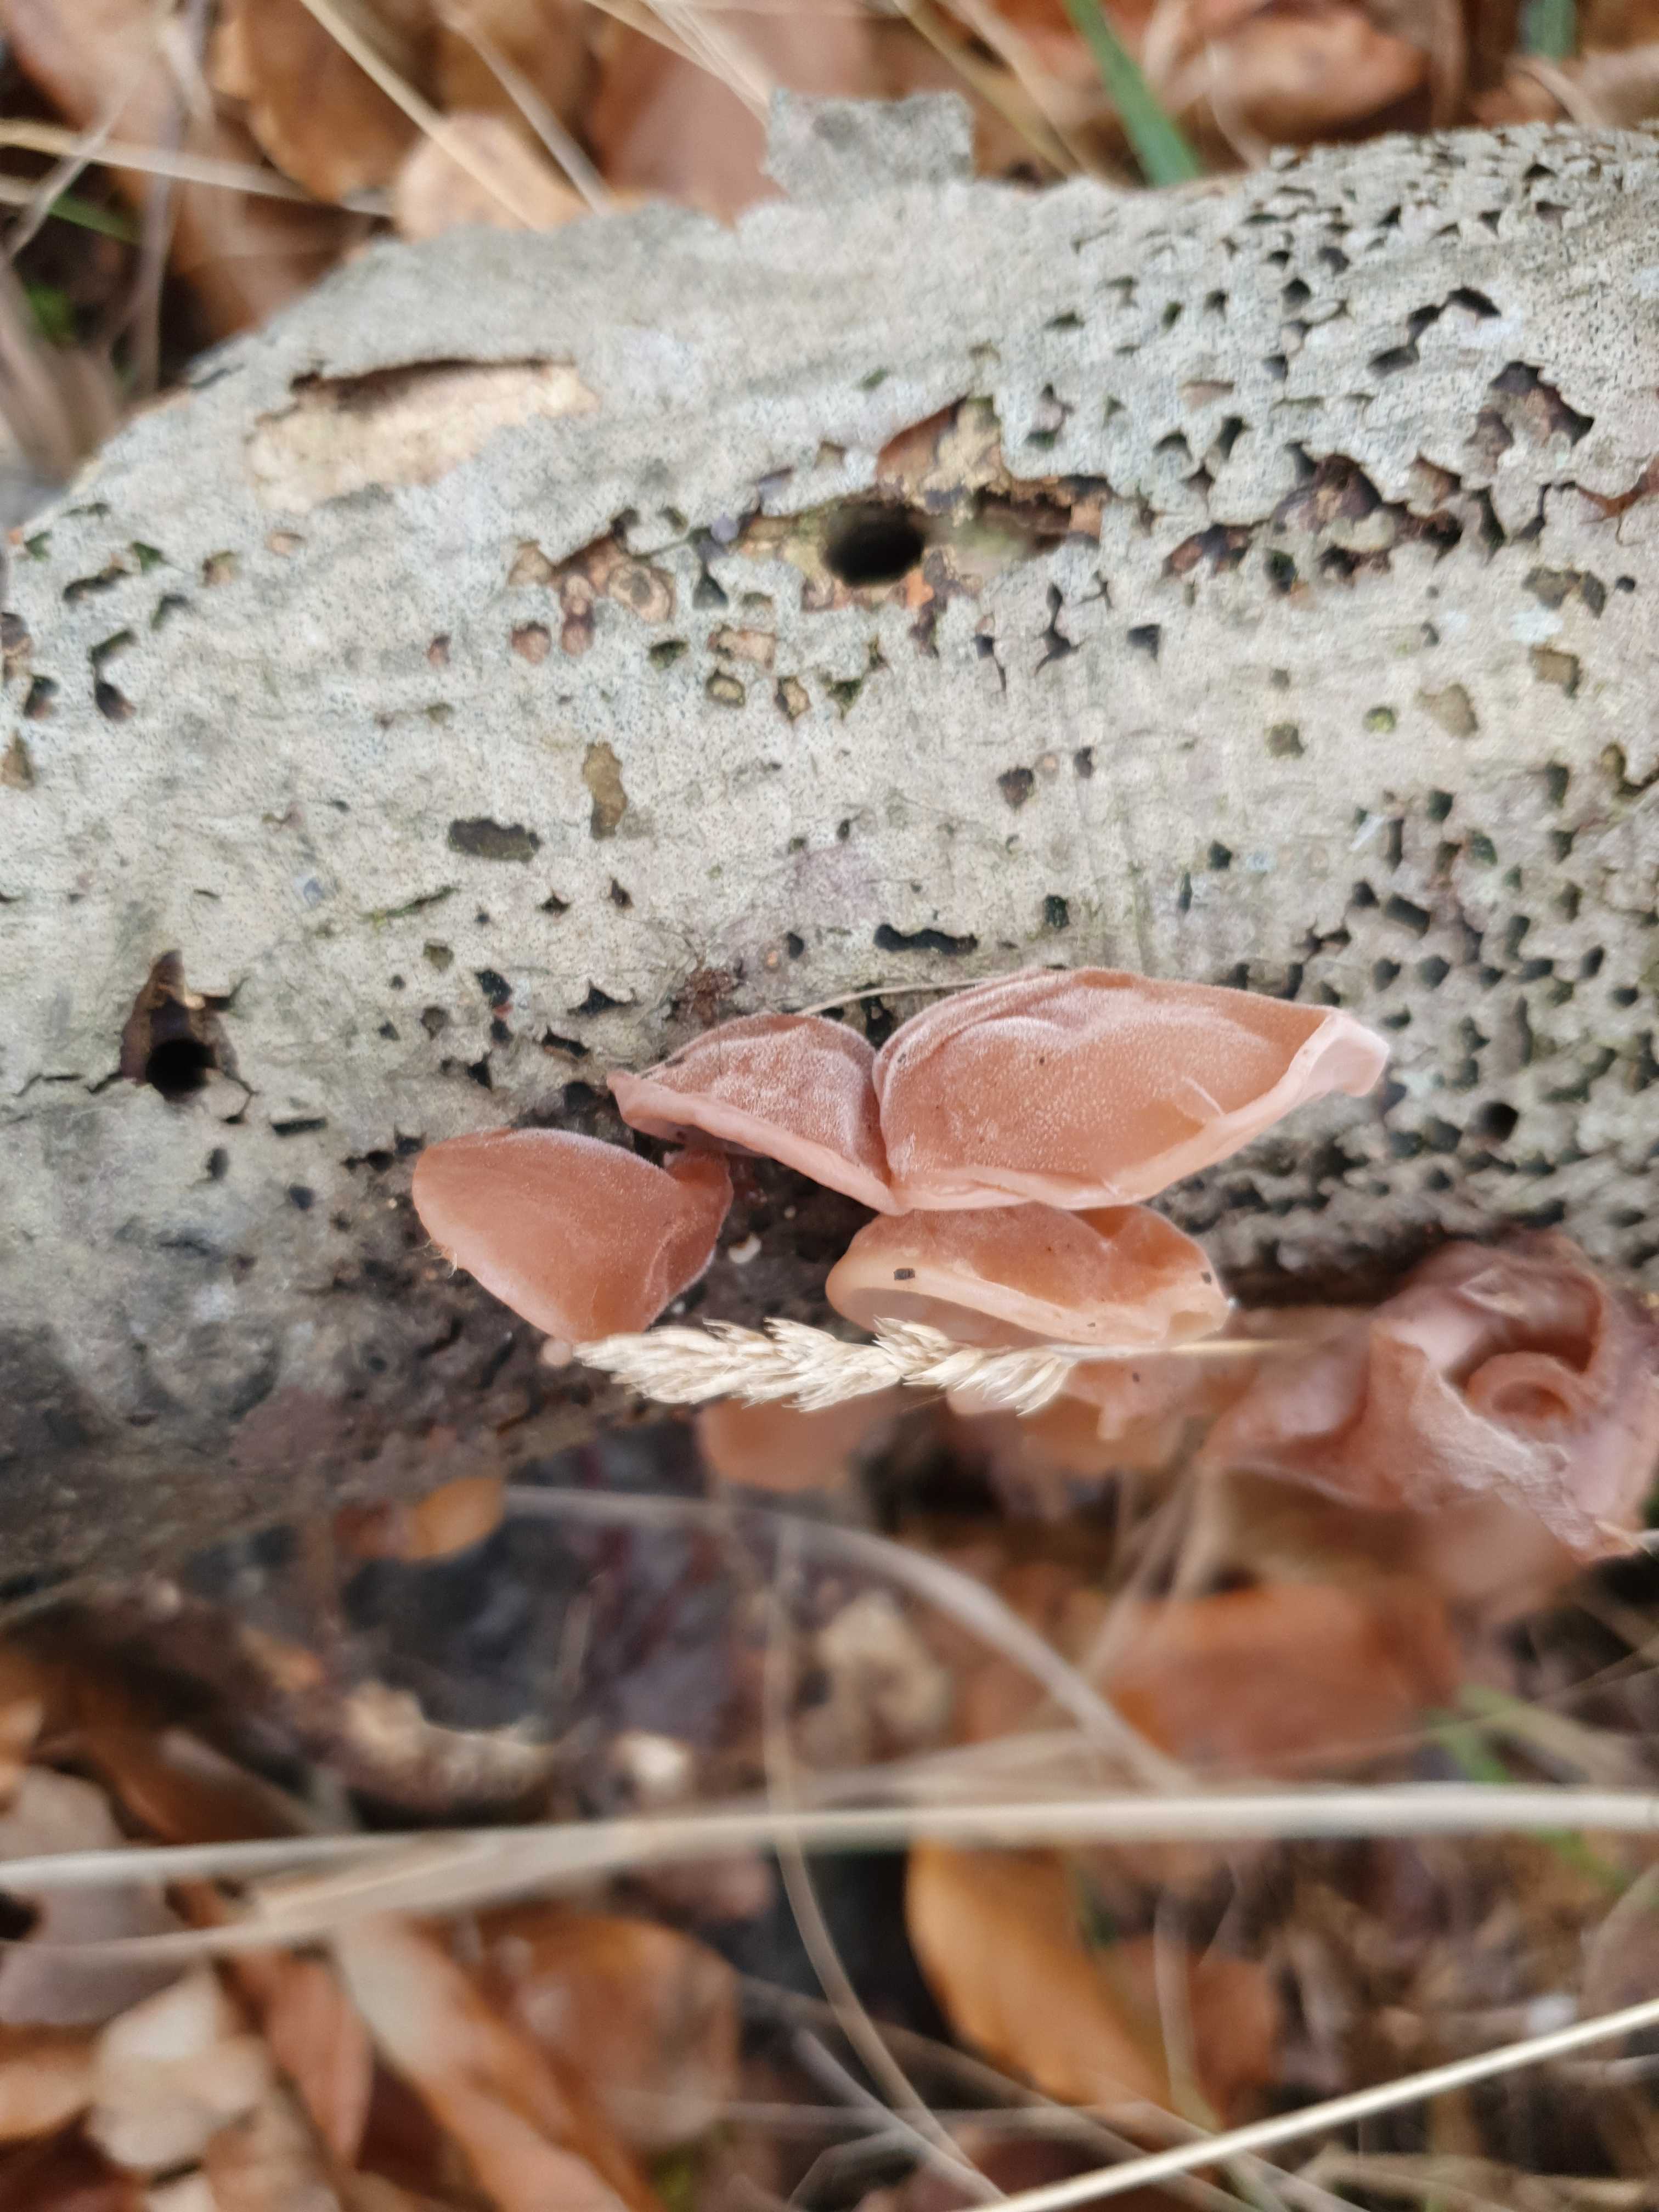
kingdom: Fungi
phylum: Basidiomycota
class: Agaricomycetes
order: Auriculariales
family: Auriculariaceae
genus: Auricularia
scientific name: Auricularia auricula-judae
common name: almindelig judasøre
